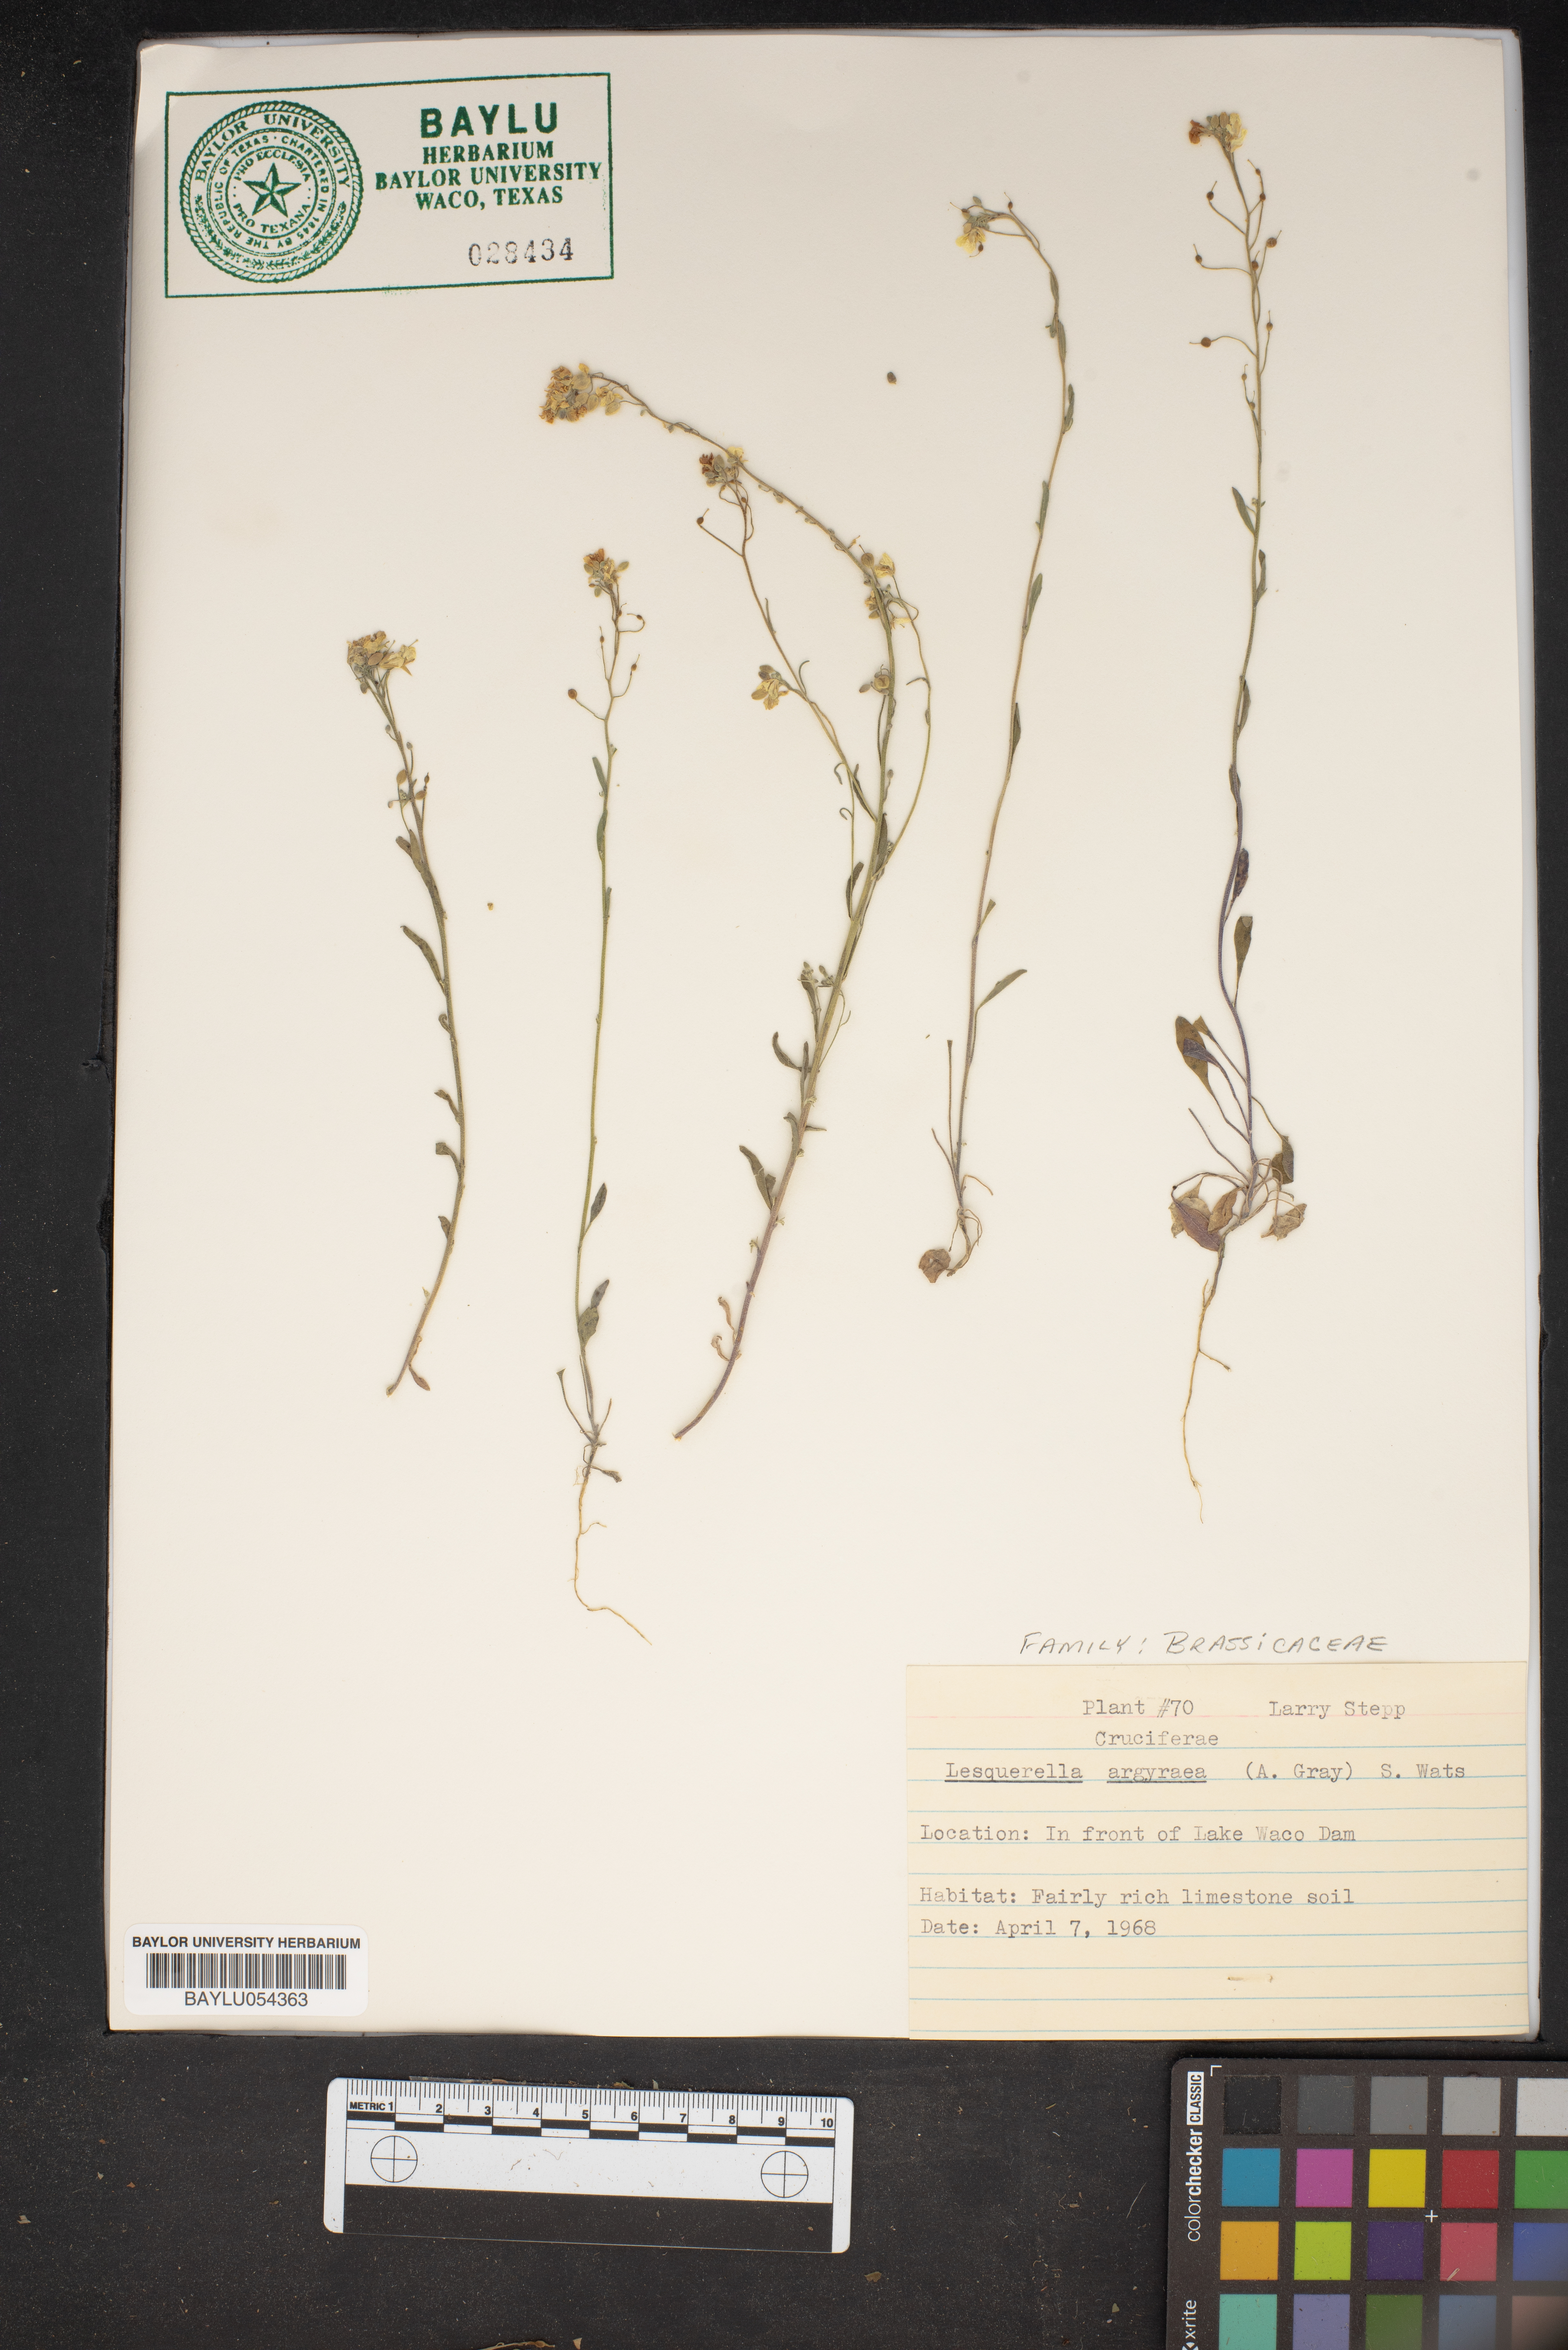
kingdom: Plantae
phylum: Tracheophyta
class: Magnoliopsida
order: Brassicales
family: Brassicaceae
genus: Physaria
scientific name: Physaria argyraea
